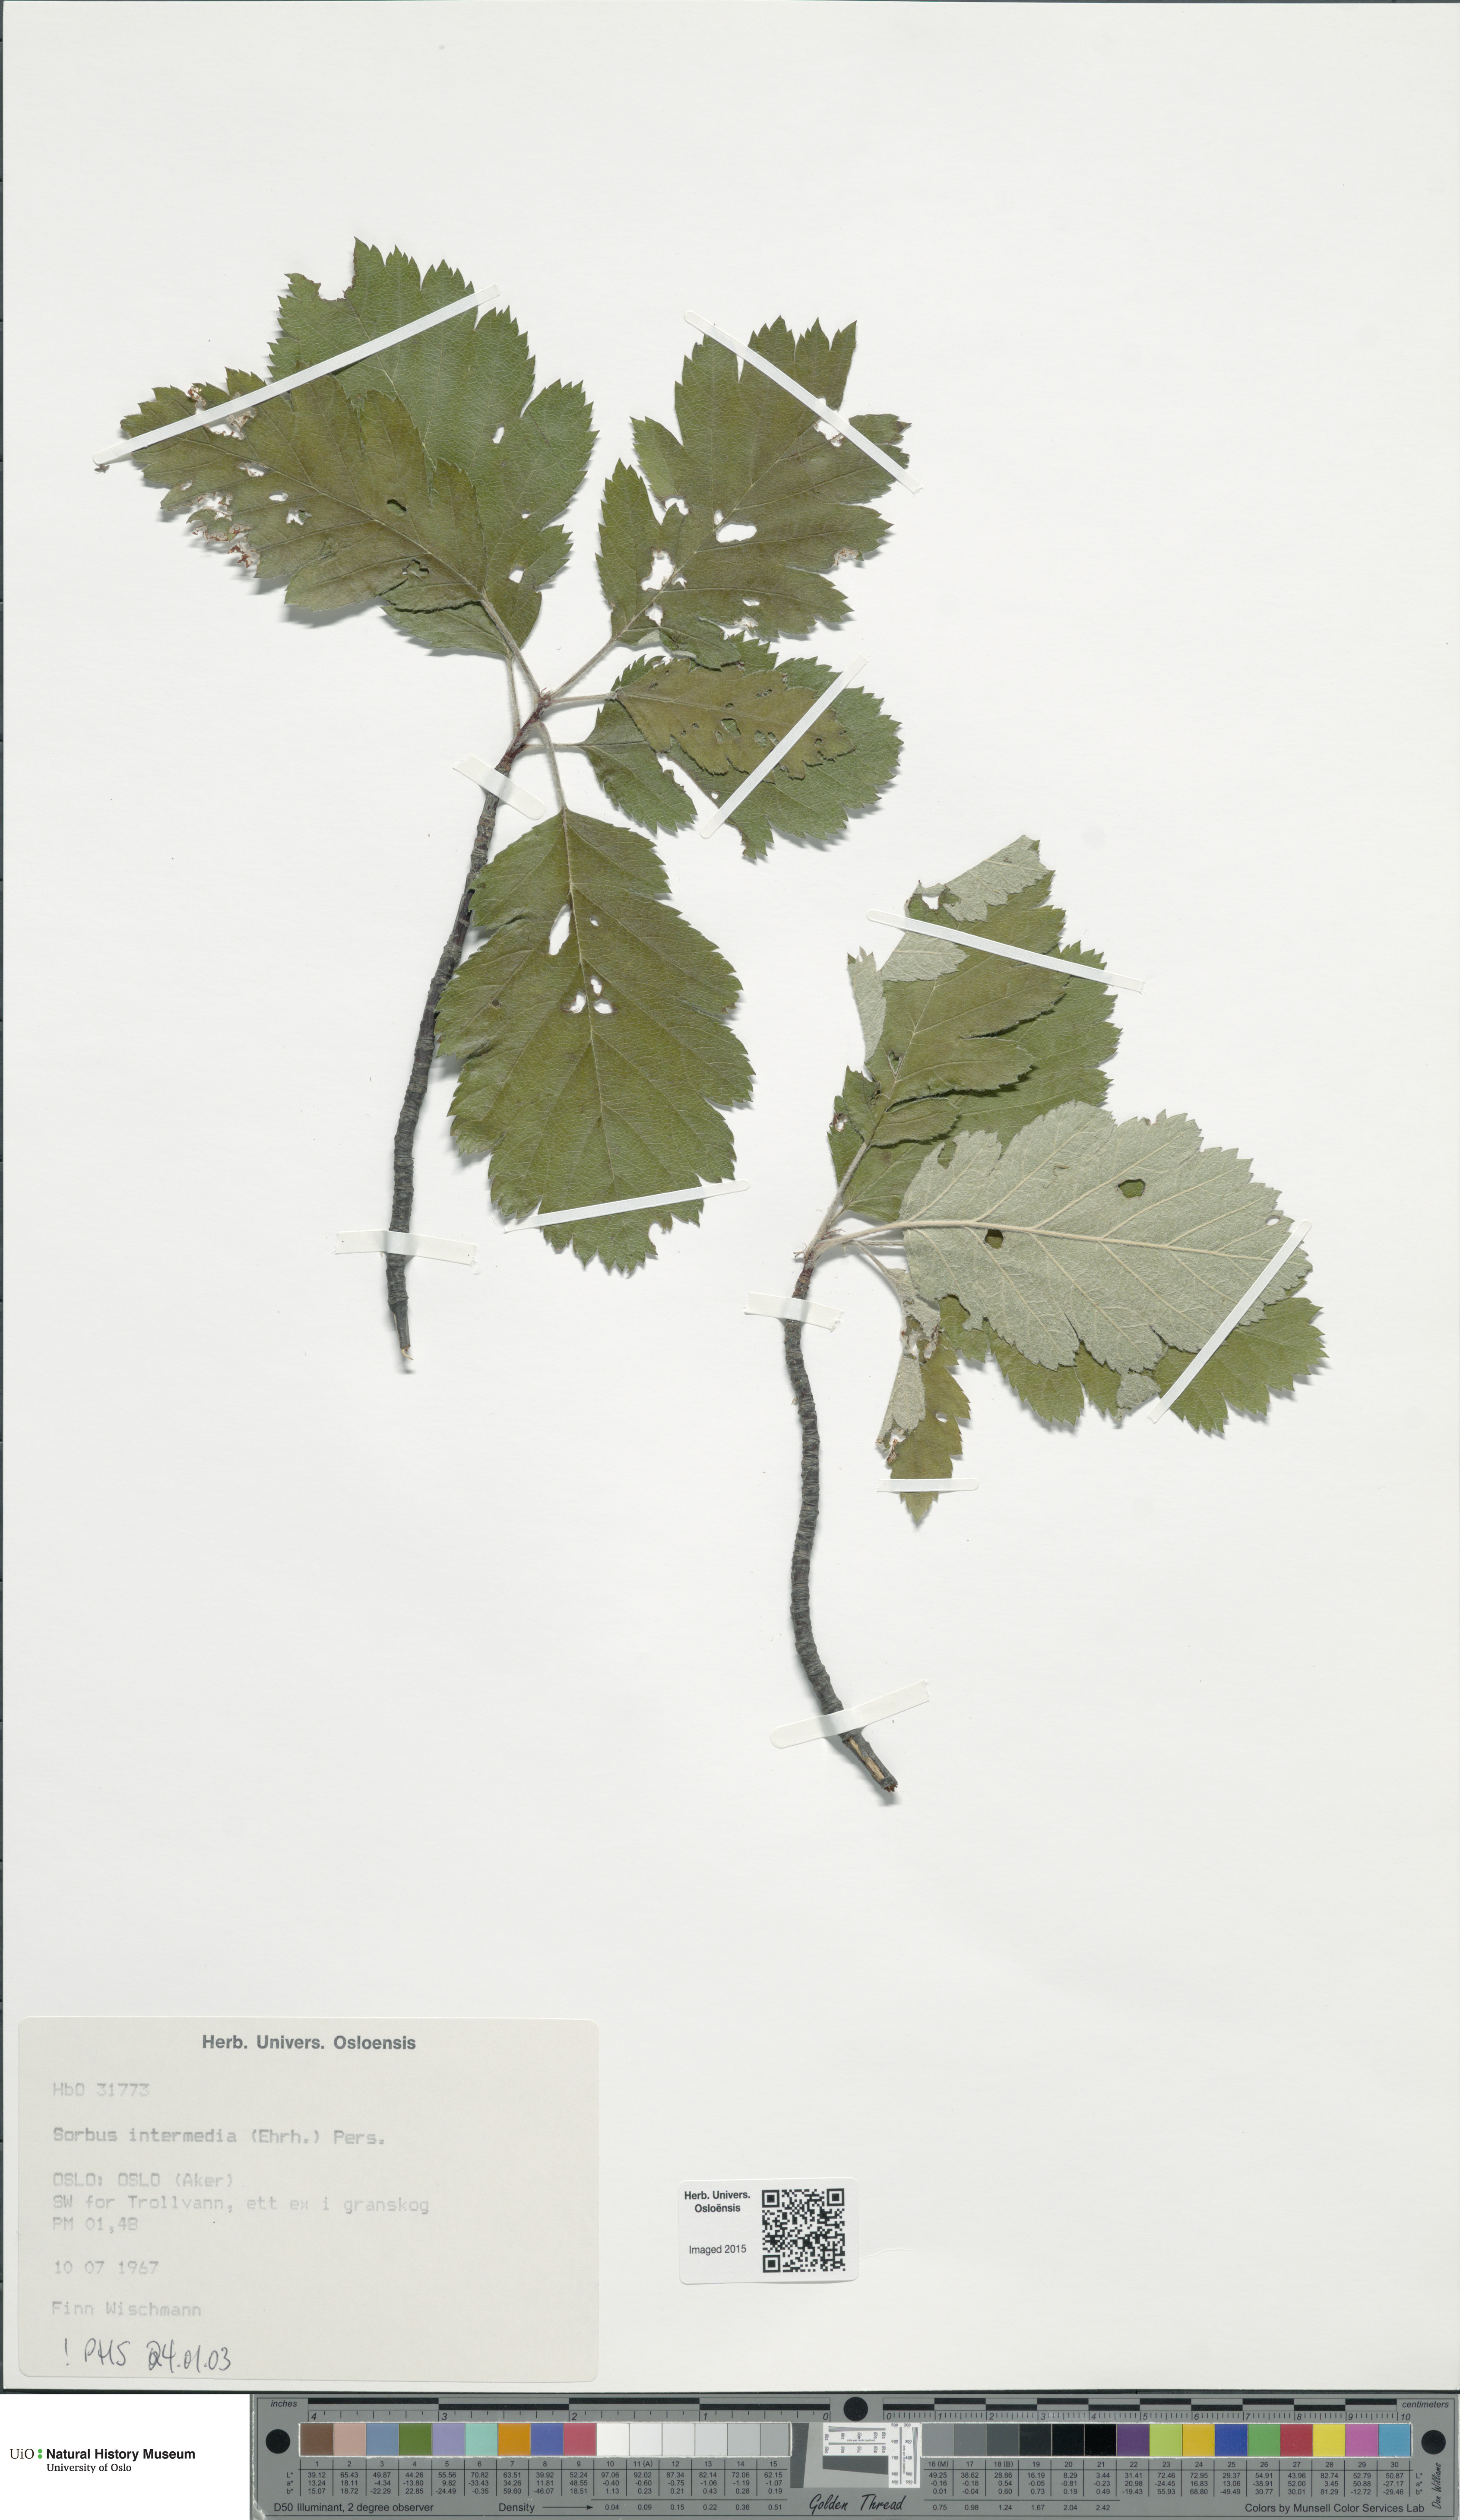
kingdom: Plantae
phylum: Tracheophyta
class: Magnoliopsida
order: Rosales
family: Rosaceae
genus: Scandosorbus
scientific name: Scandosorbus intermedia
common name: Swedish whitebeam
